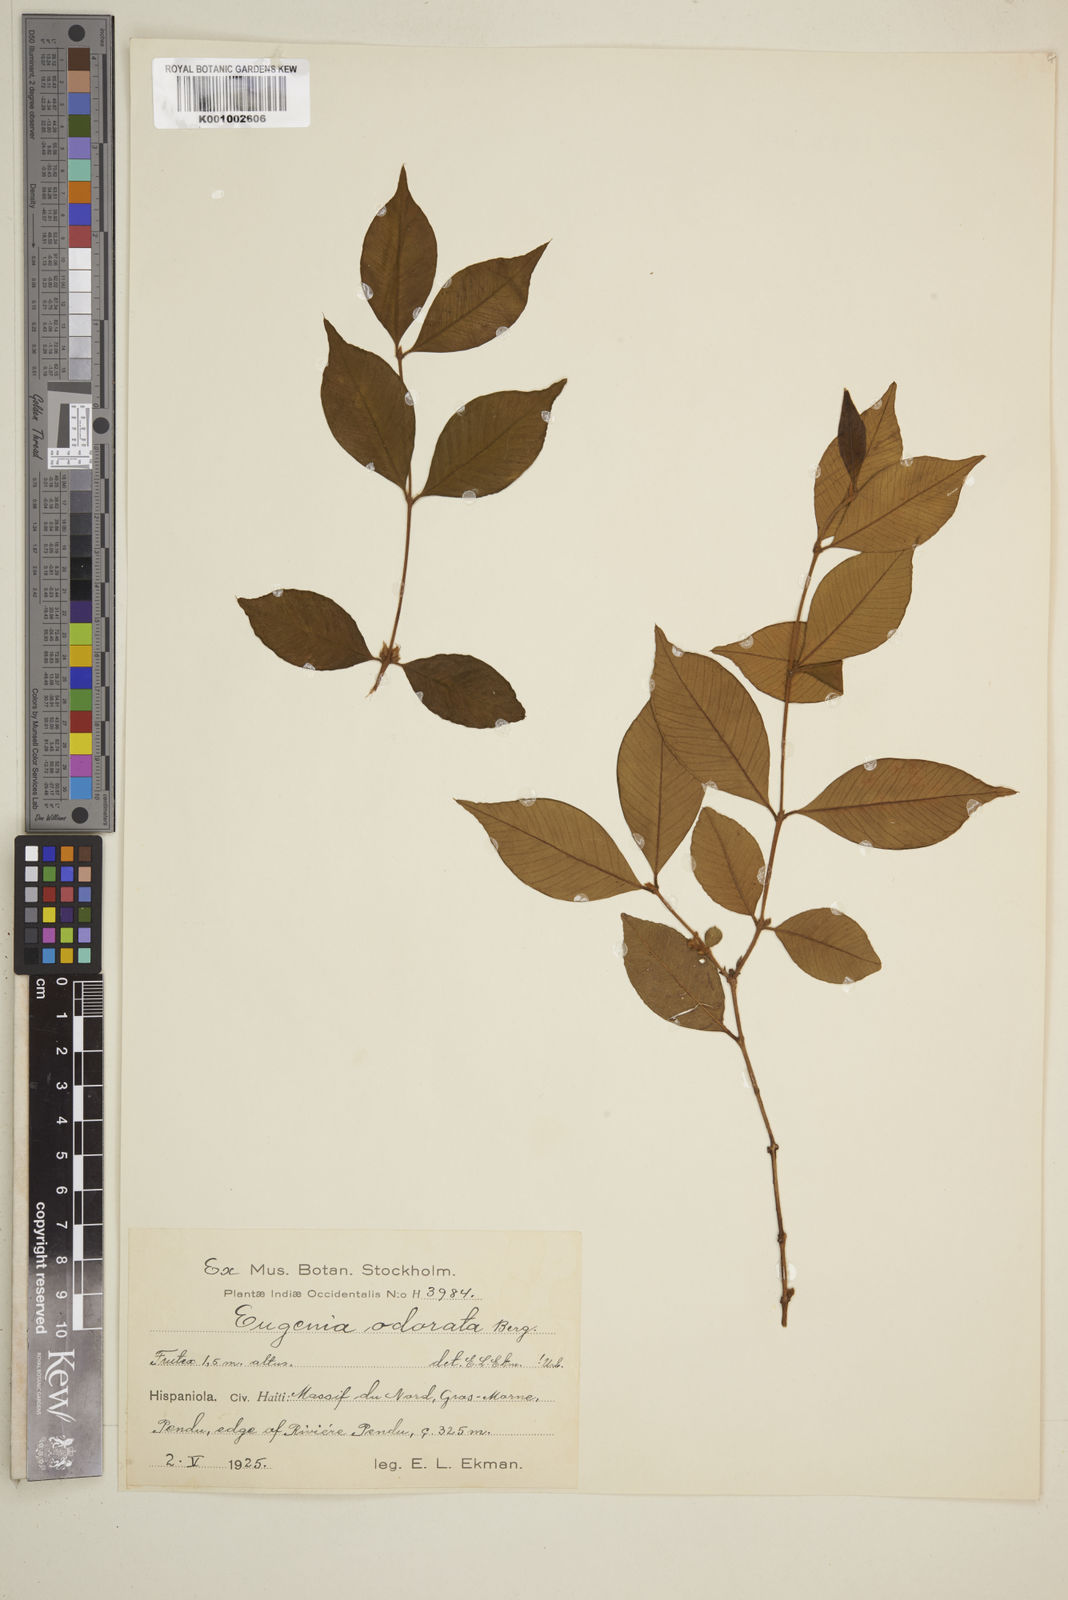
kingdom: Plantae
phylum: Tracheophyta
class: Magnoliopsida
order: Myrtales
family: Myrtaceae
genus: Syzygium
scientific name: Syzygium brachiatum
